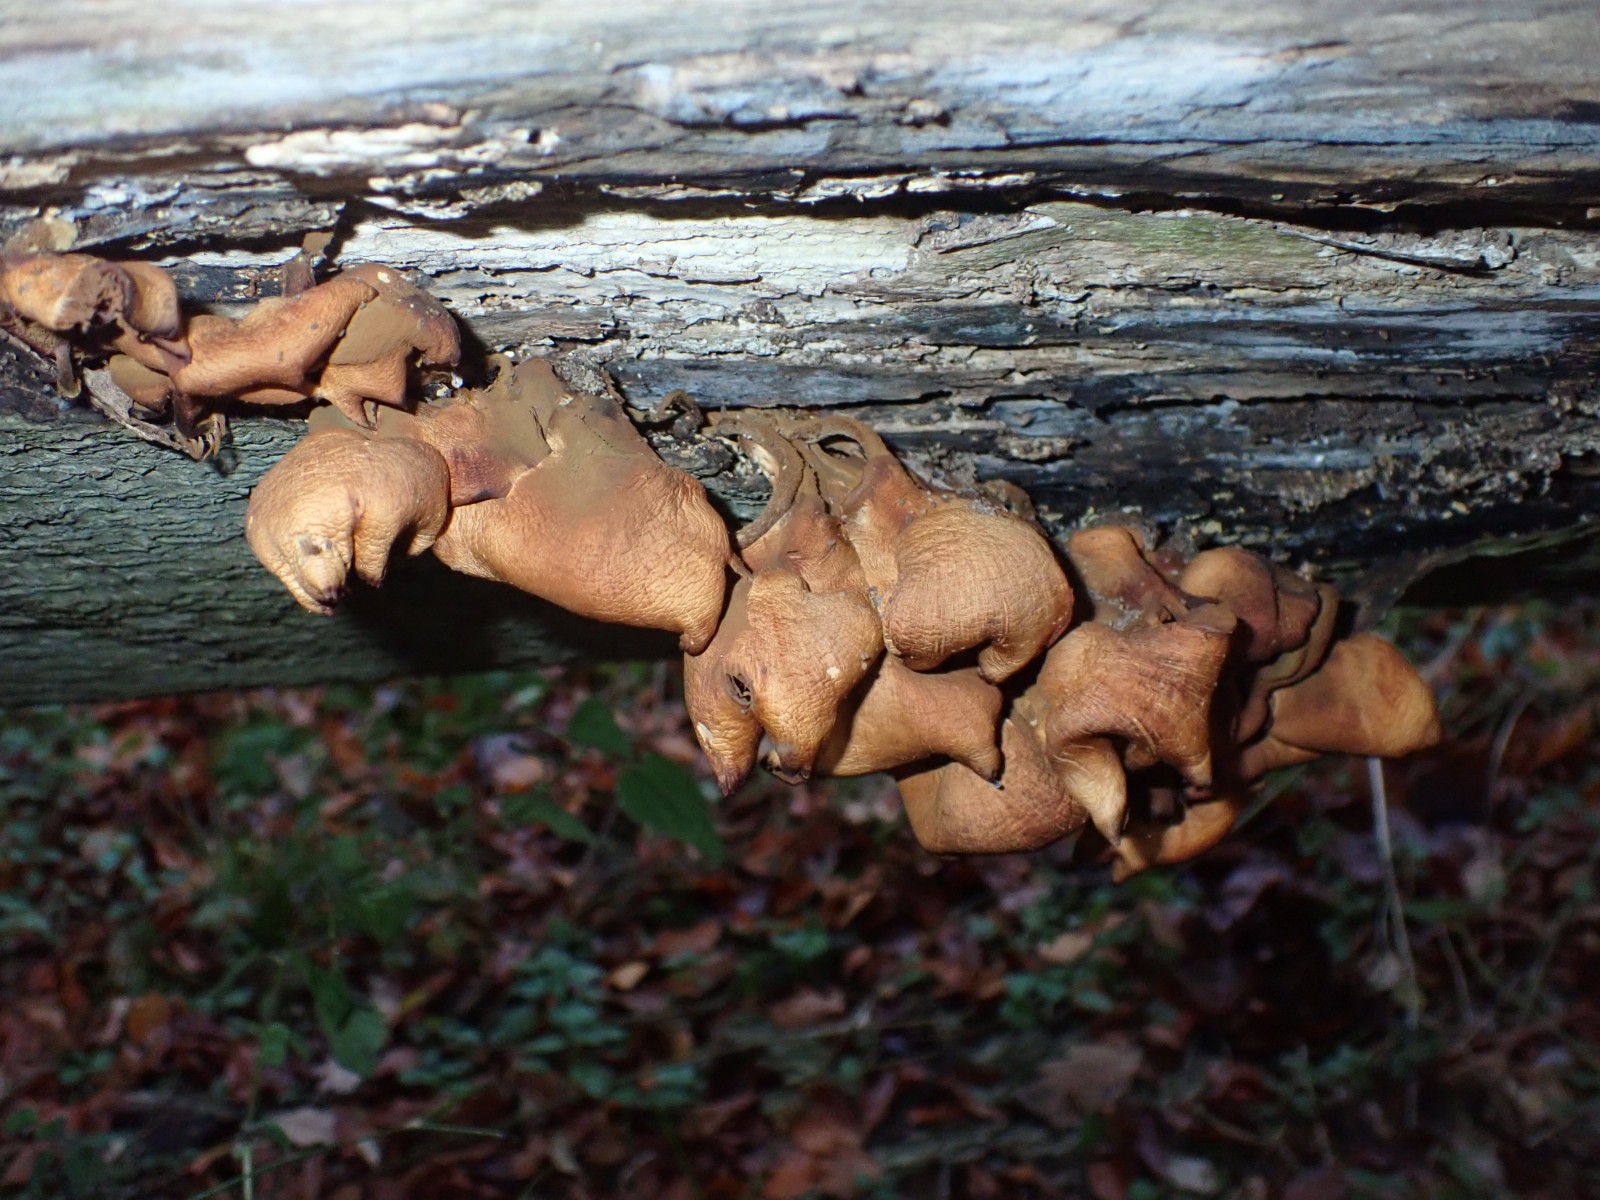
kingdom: Fungi
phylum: Basidiomycota
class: Agaricomycetes
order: Agaricales
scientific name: Agaricales
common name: champignonordenen
